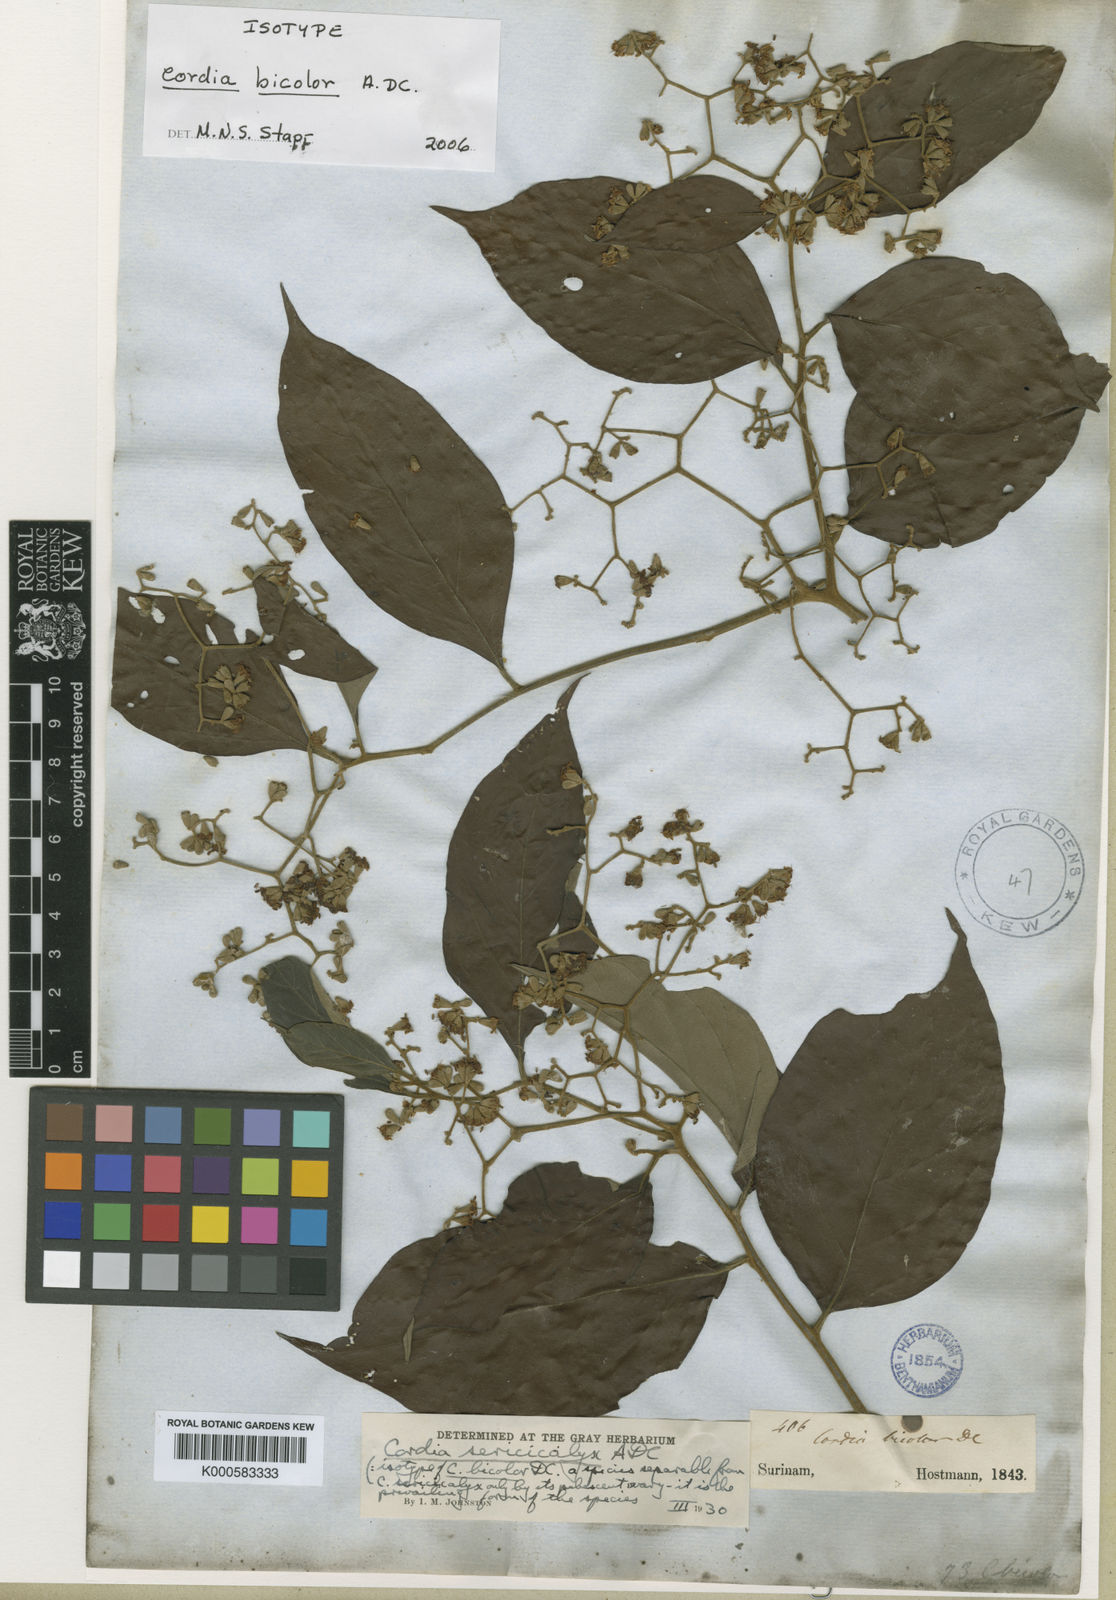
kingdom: Plantae
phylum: Tracheophyta
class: Magnoliopsida
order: Boraginales
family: Cordiaceae
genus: Cordia
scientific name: Cordia bicolor
